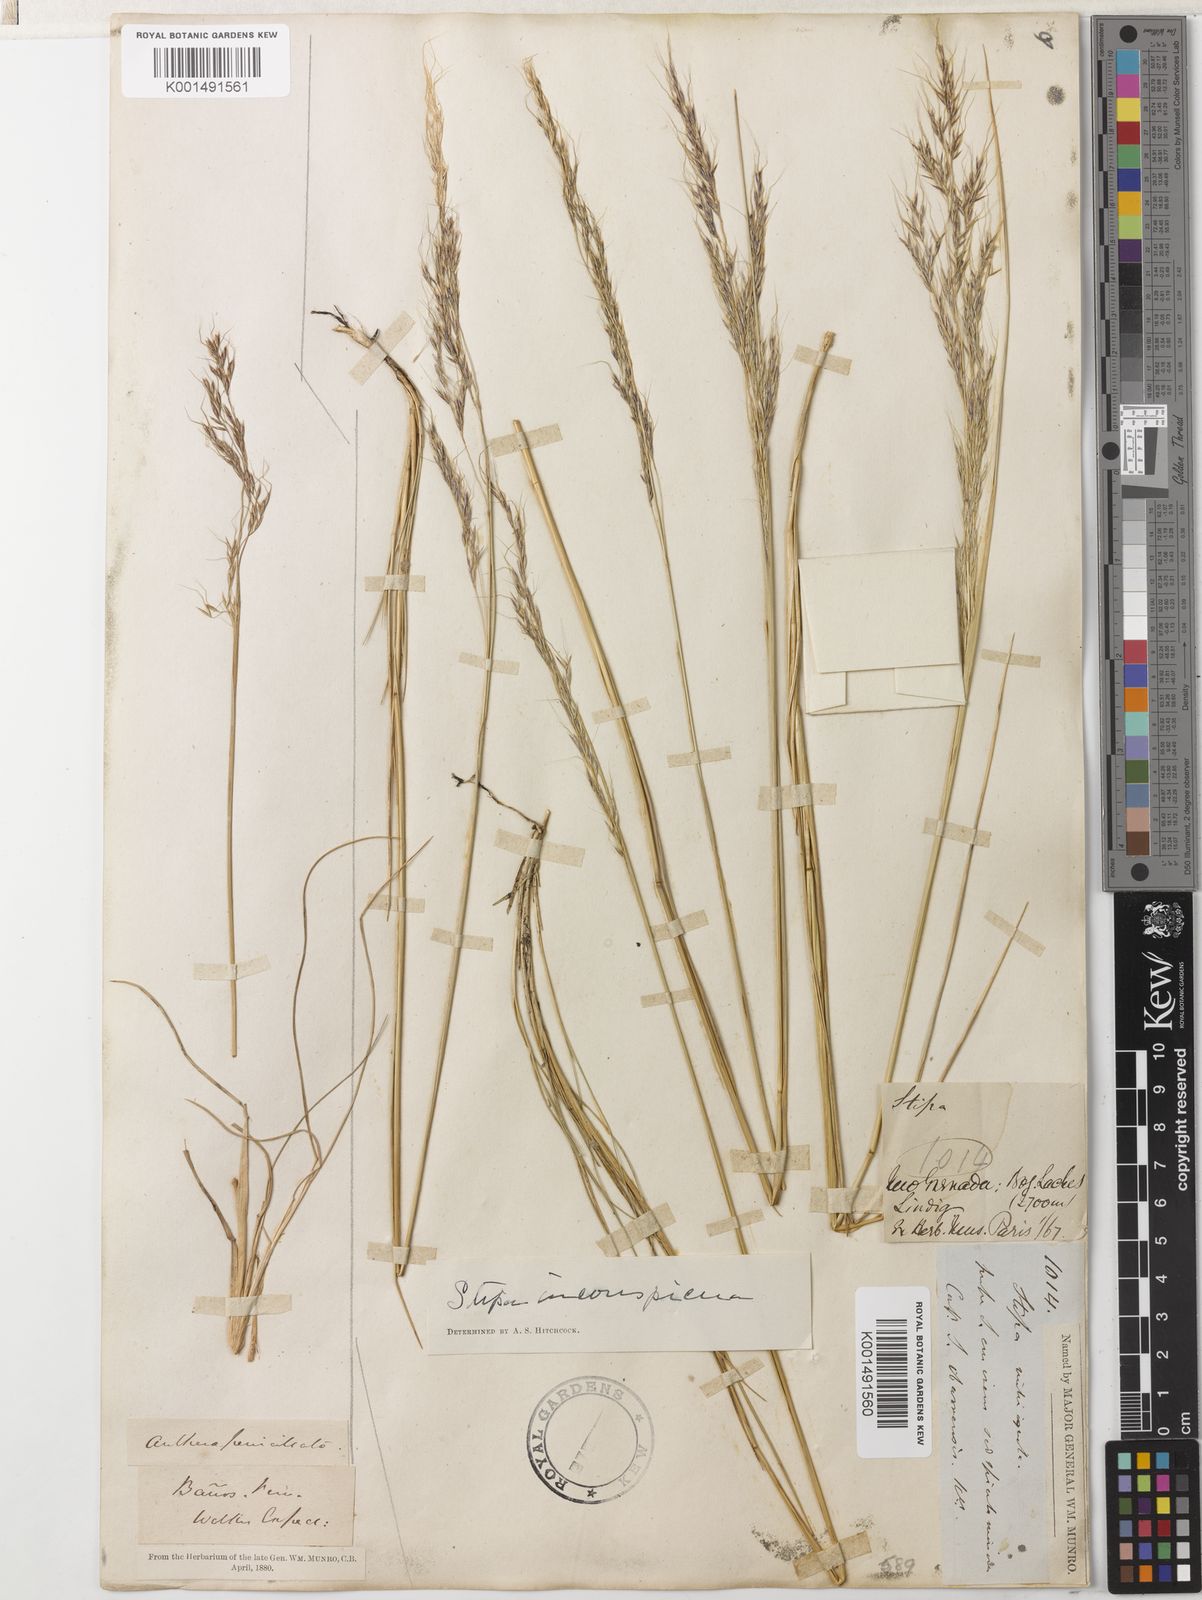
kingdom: Plantae
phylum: Tracheophyta
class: Liliopsida
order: Poales
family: Poaceae
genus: Nassella
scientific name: Nassella inconspicua
